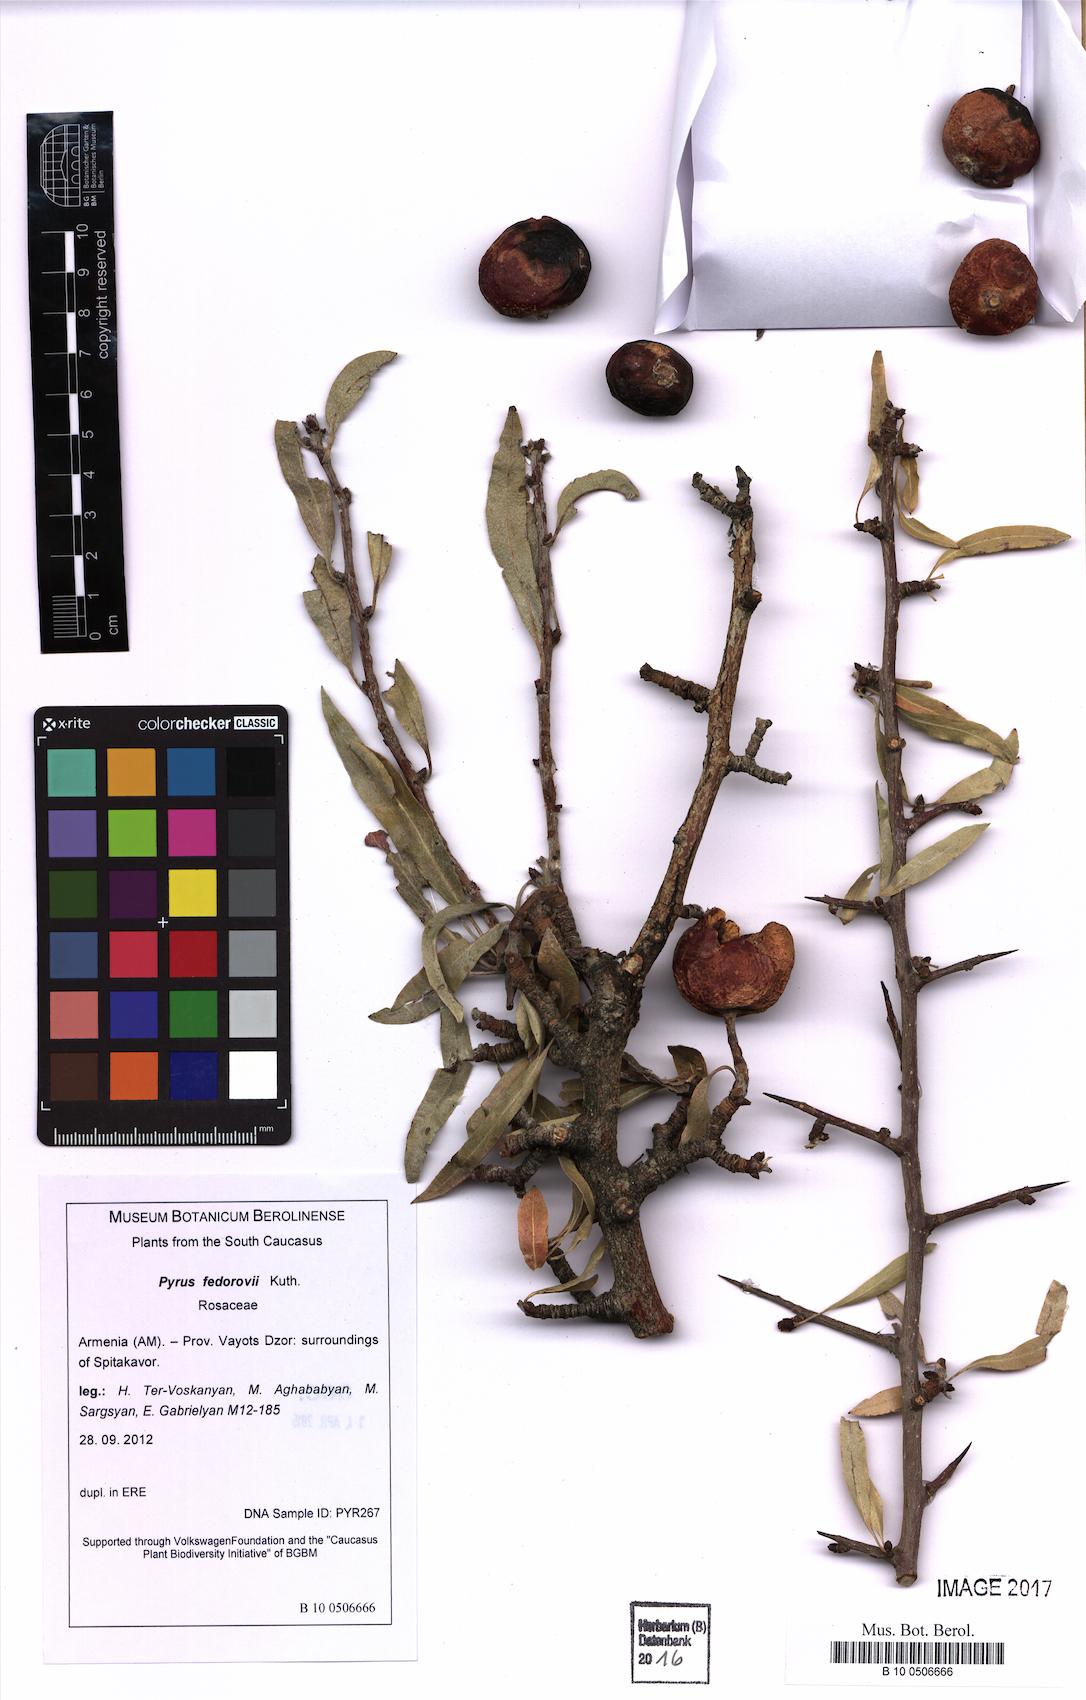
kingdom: Plantae
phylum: Tracheophyta
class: Magnoliopsida
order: Rosales
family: Rosaceae
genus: Pyrus
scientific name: Pyrus fedorovii
